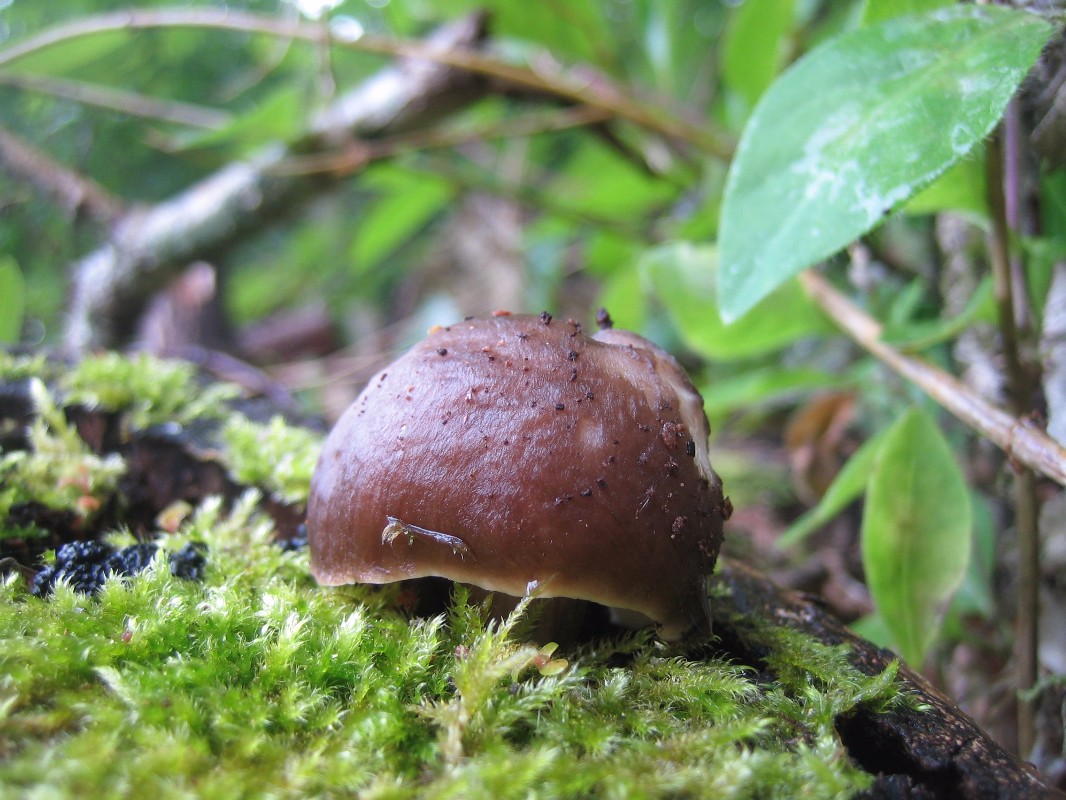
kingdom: Fungi
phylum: Basidiomycota
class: Agaricomycetes
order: Agaricales
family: Pluteaceae
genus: Pluteus
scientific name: Pluteus cervinus
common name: sodfarvet skærmhat
